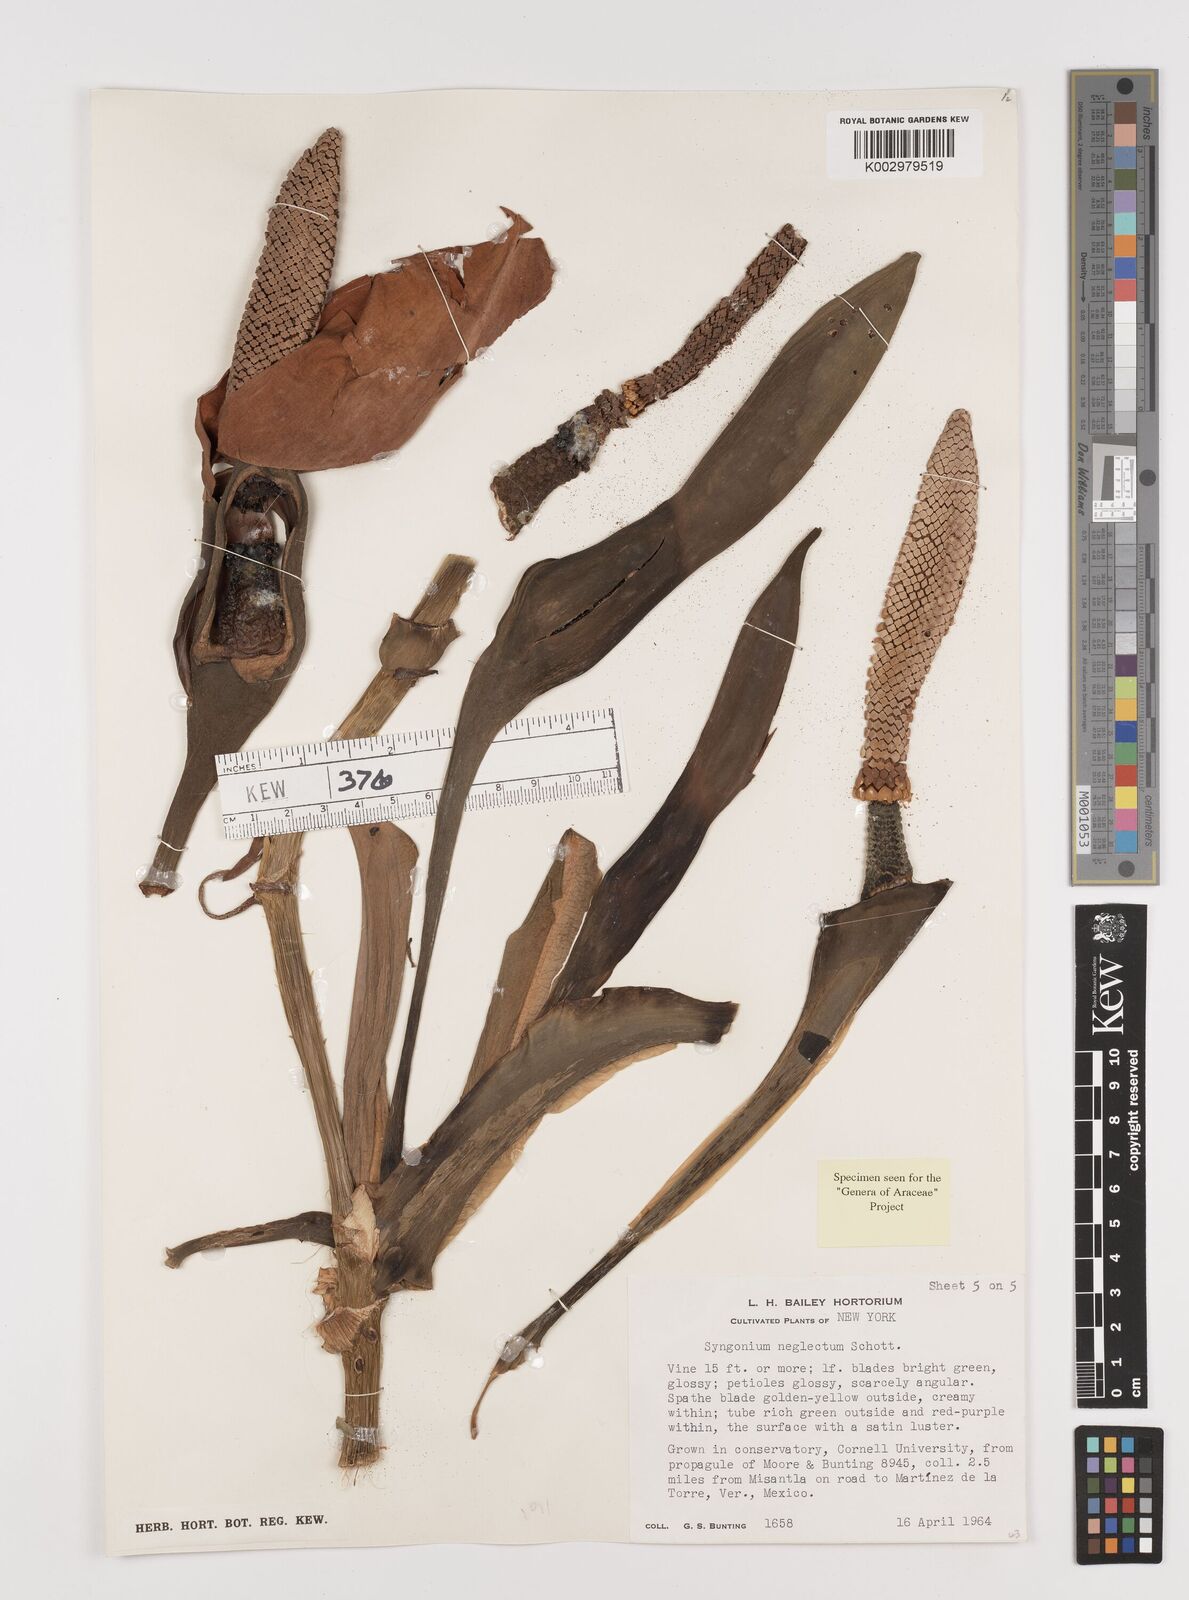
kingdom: Plantae
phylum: Tracheophyta
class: Liliopsida
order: Alismatales
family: Araceae
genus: Syngonium
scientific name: Syngonium neglectum
